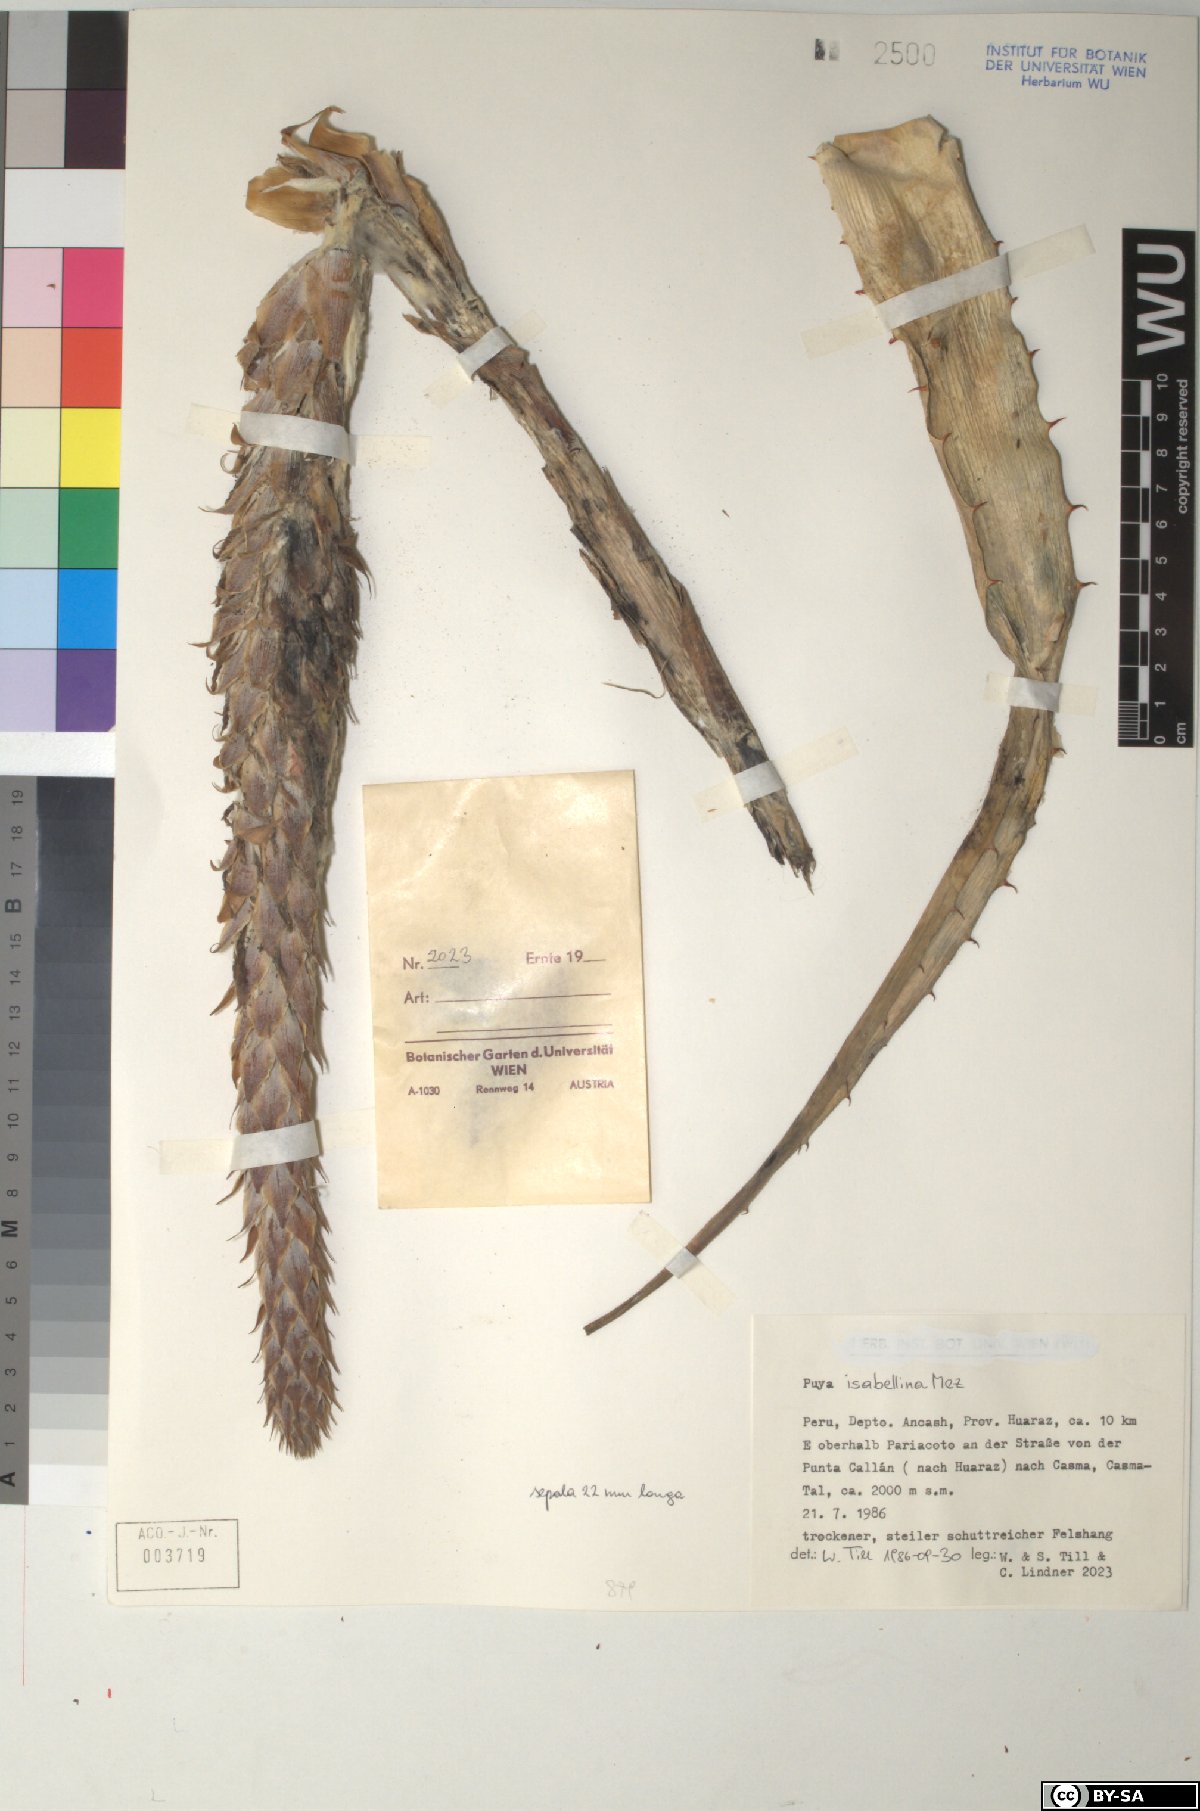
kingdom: Plantae
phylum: Tracheophyta
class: Liliopsida
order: Poales
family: Bromeliaceae
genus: Puya
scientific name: Puya isabellina
